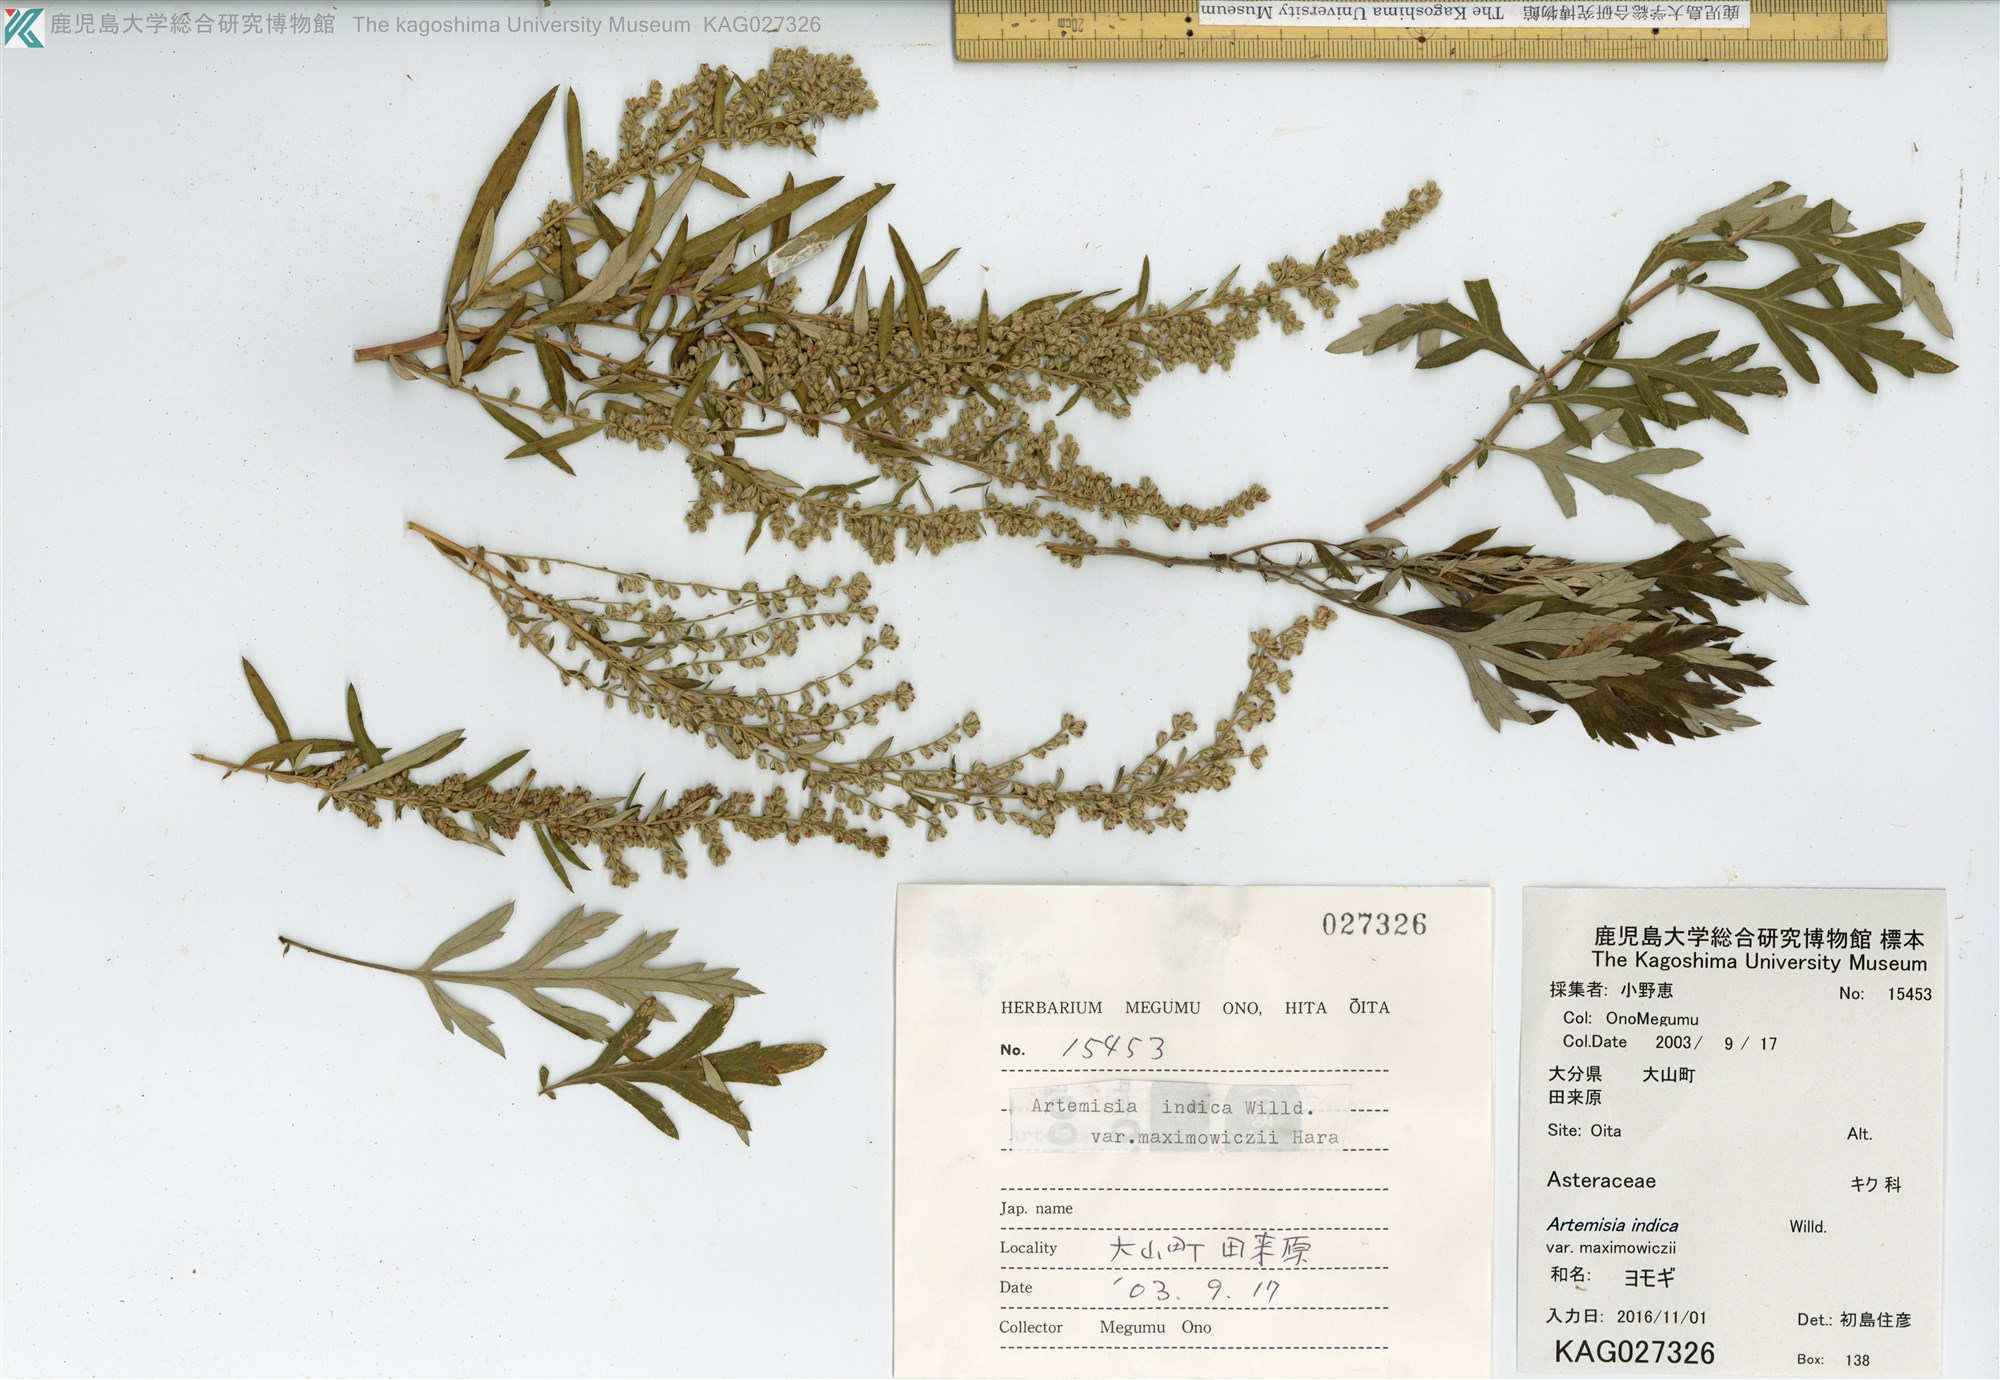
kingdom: Plantae
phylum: Tracheophyta
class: Magnoliopsida
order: Asterales
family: Asteraceae
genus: Artemisia
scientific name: Artemisia princeps
